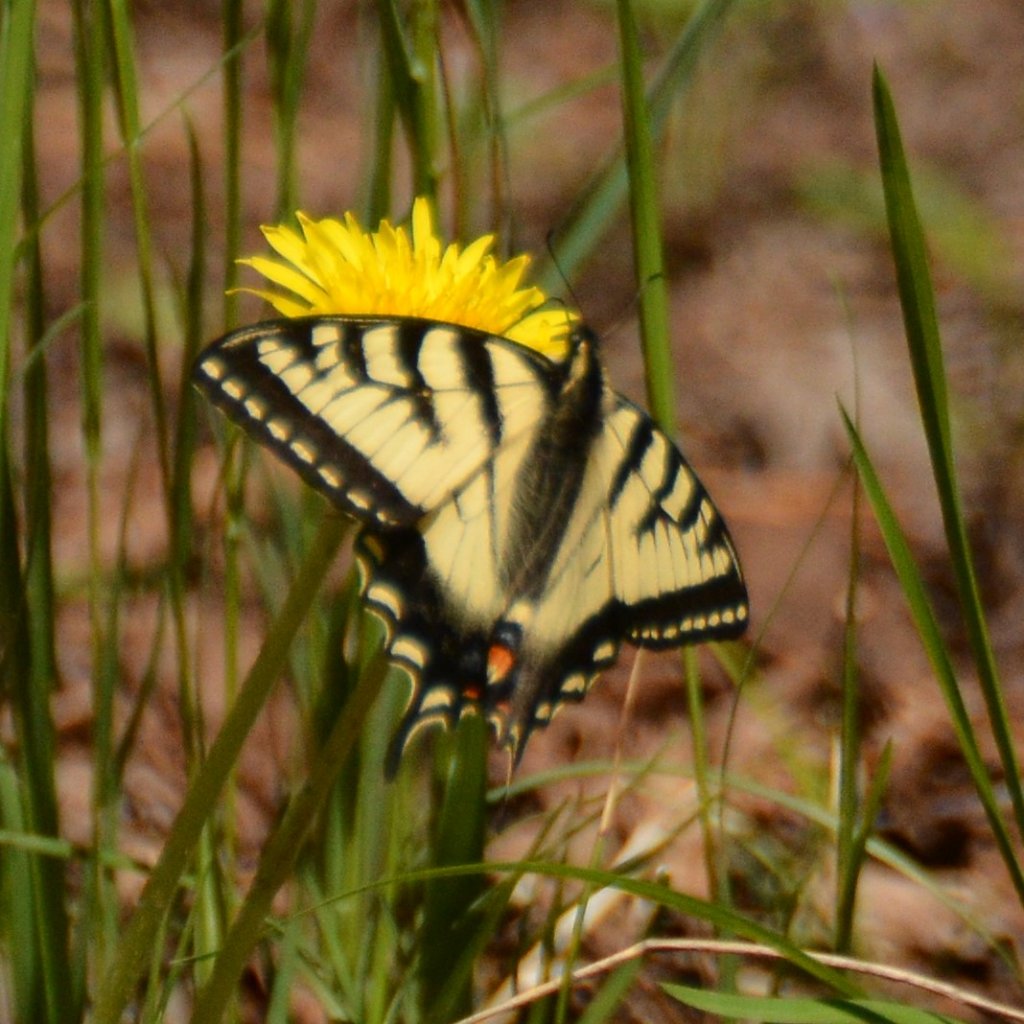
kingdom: Animalia
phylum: Arthropoda
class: Insecta
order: Lepidoptera
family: Papilionidae
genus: Pterourus
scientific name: Pterourus canadensis
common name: Canadian Tiger Swallowtail
